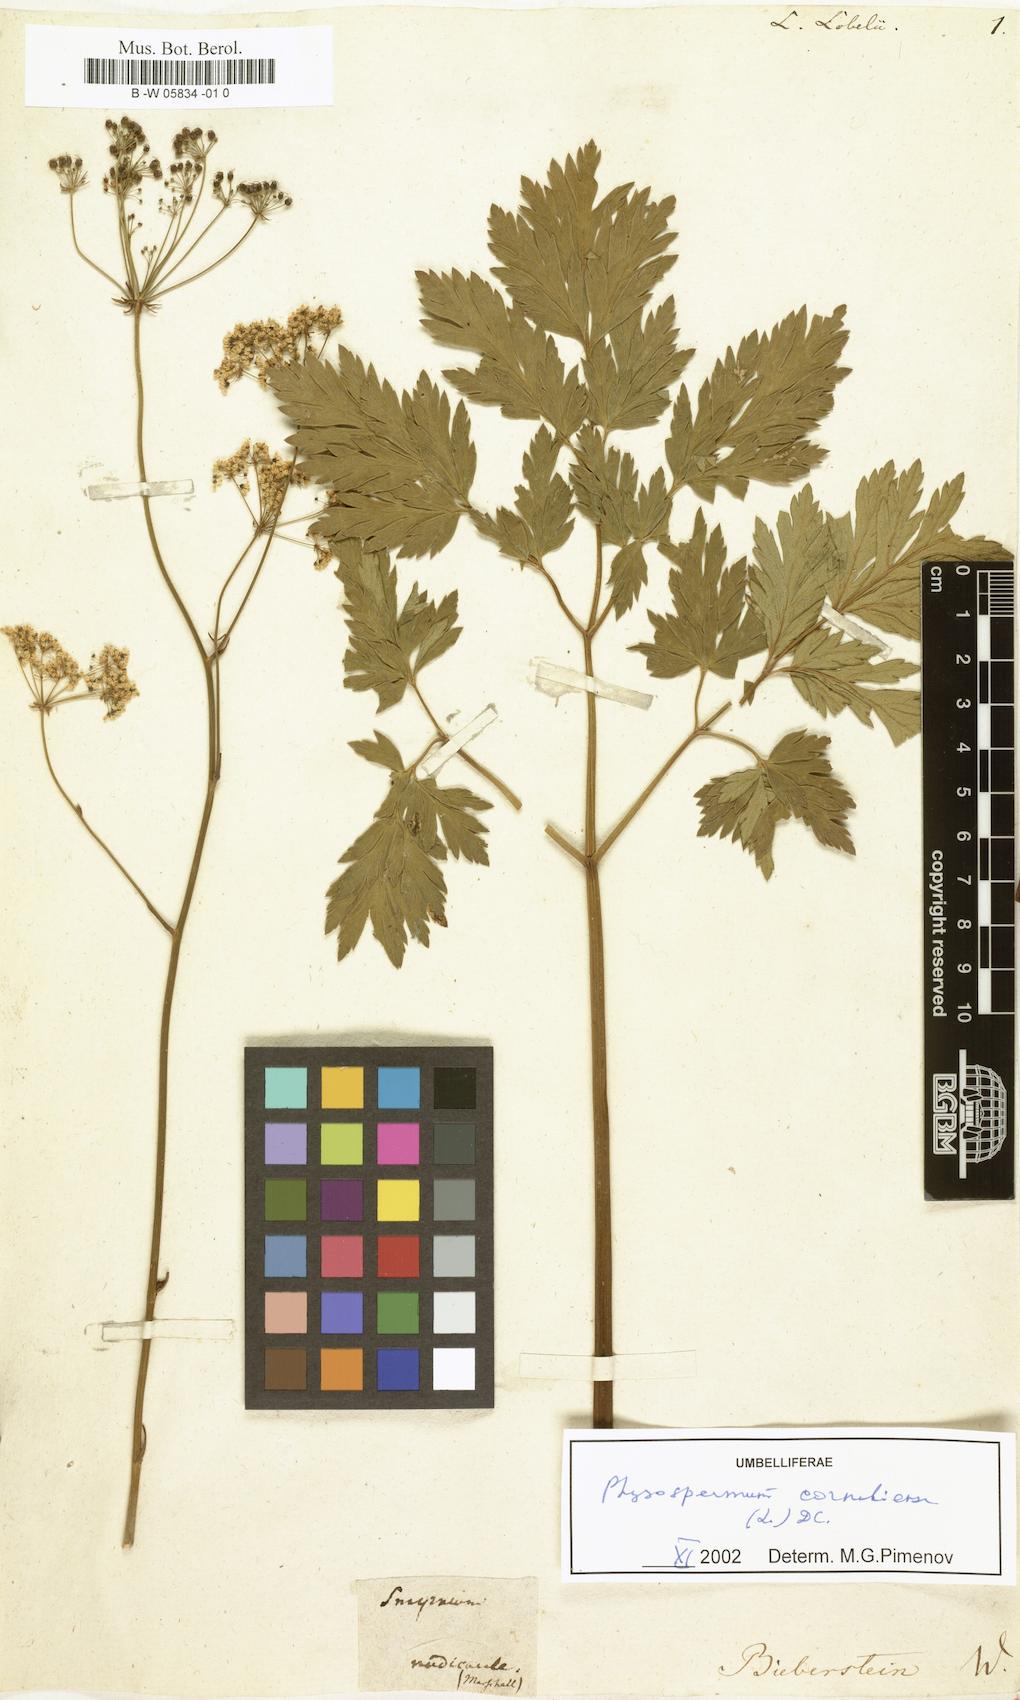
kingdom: Plantae
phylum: Tracheophyta
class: Magnoliopsida
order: Apiales
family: Apiaceae
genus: Ligusticum
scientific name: Ligusticum lobelii
